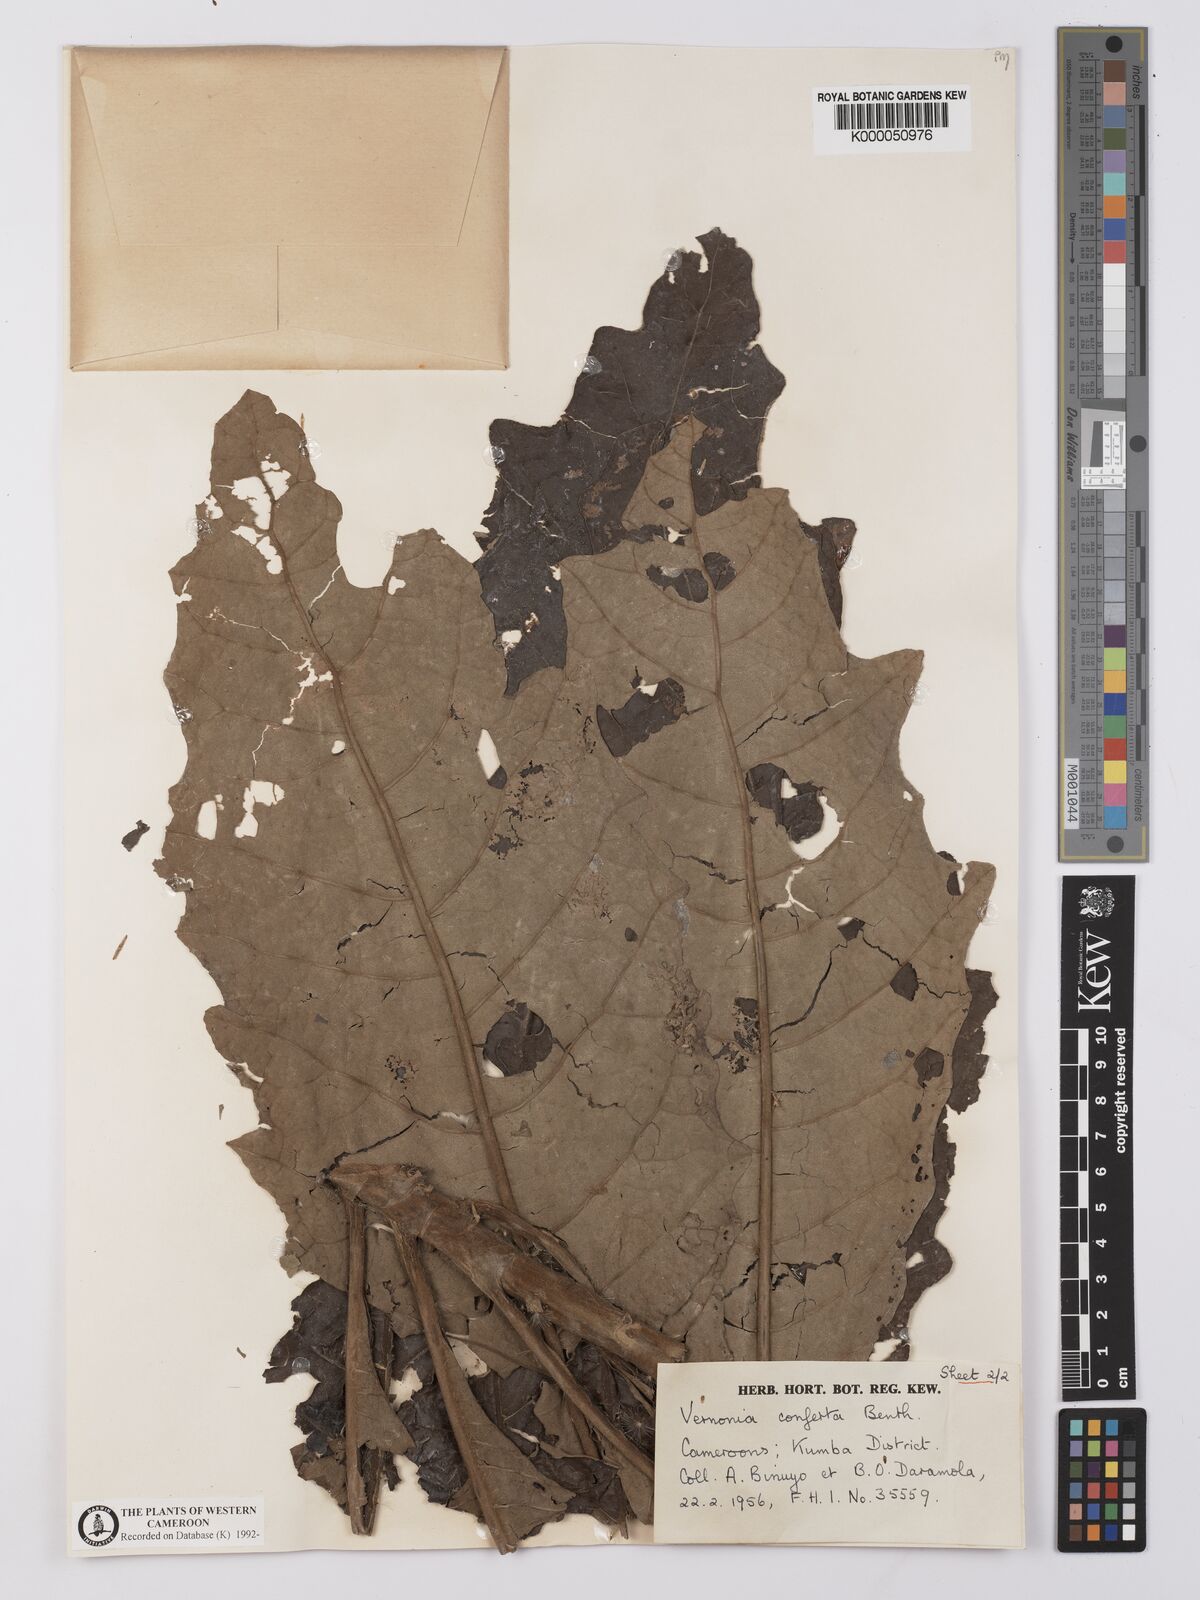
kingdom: Plantae
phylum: Tracheophyta
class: Magnoliopsida
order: Asterales
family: Asteraceae
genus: Brenandendron
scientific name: Brenandendron donianum
